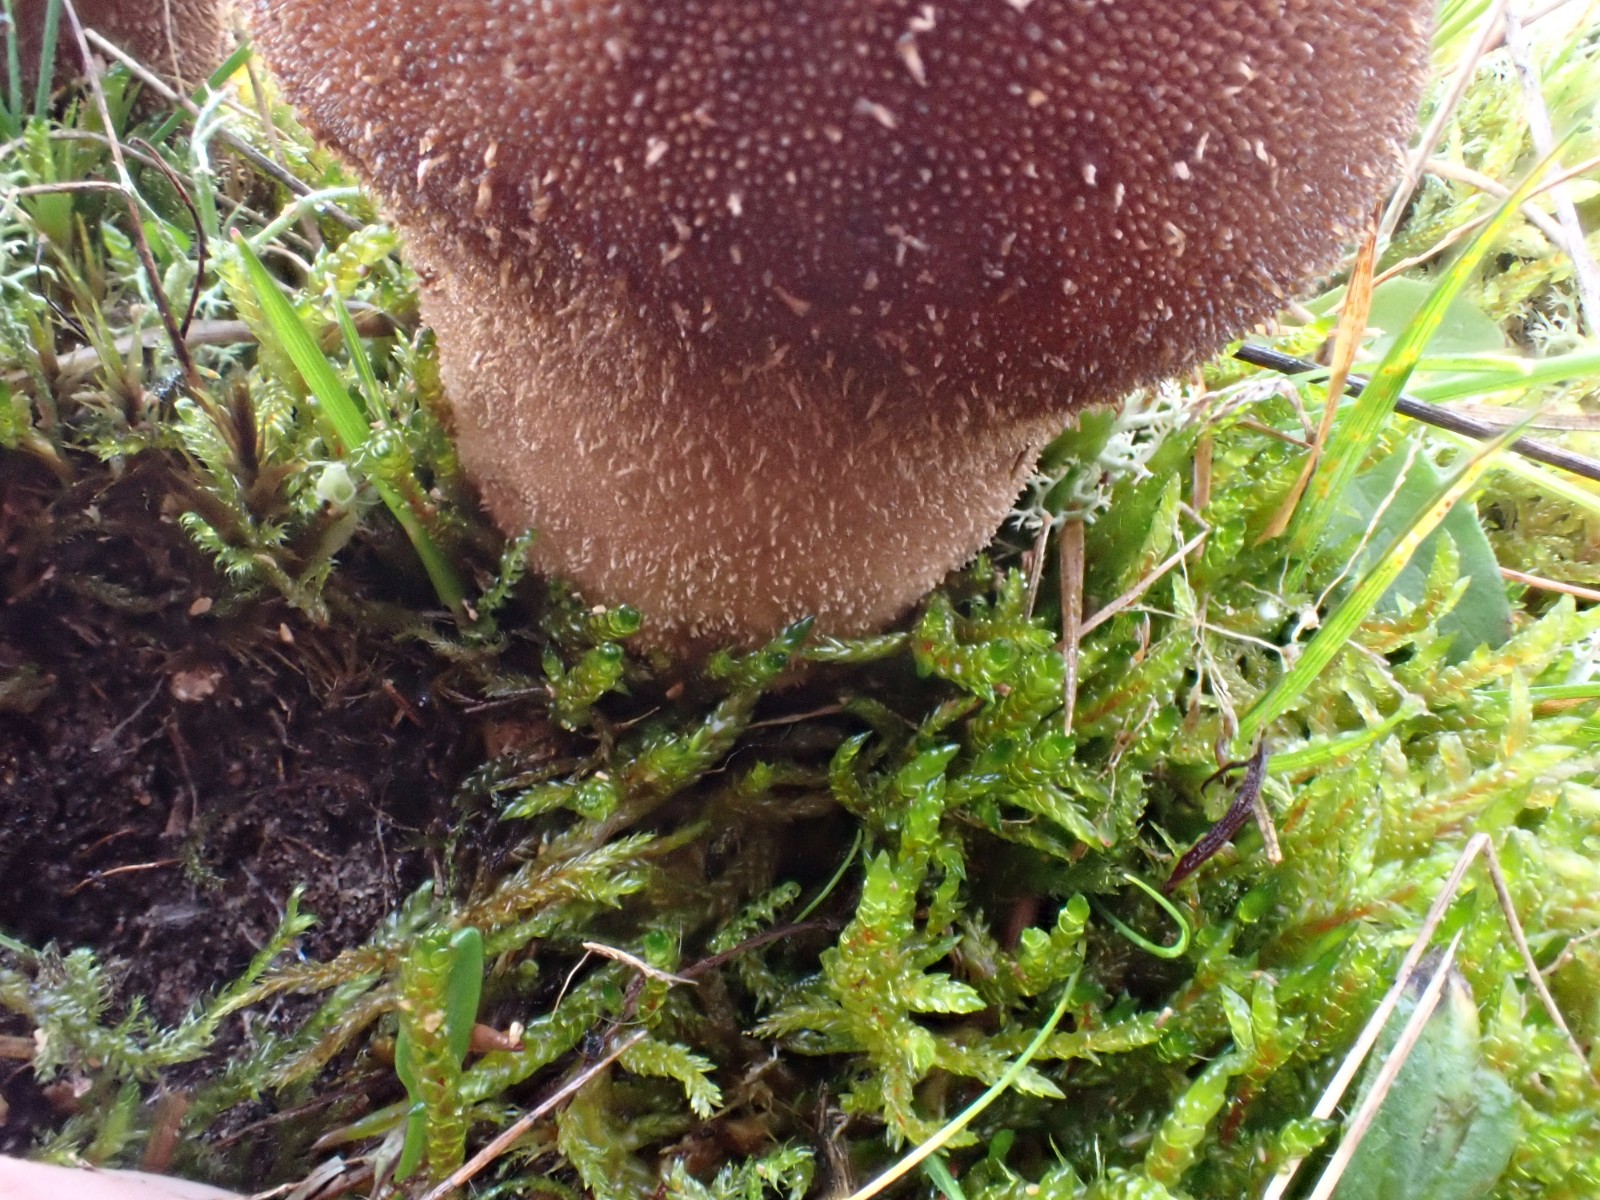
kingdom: Fungi
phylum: Basidiomycota
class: Agaricomycetes
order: Agaricales
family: Lycoperdaceae
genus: Lycoperdon
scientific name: Lycoperdon nigrescens
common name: sortagtig støvbold
